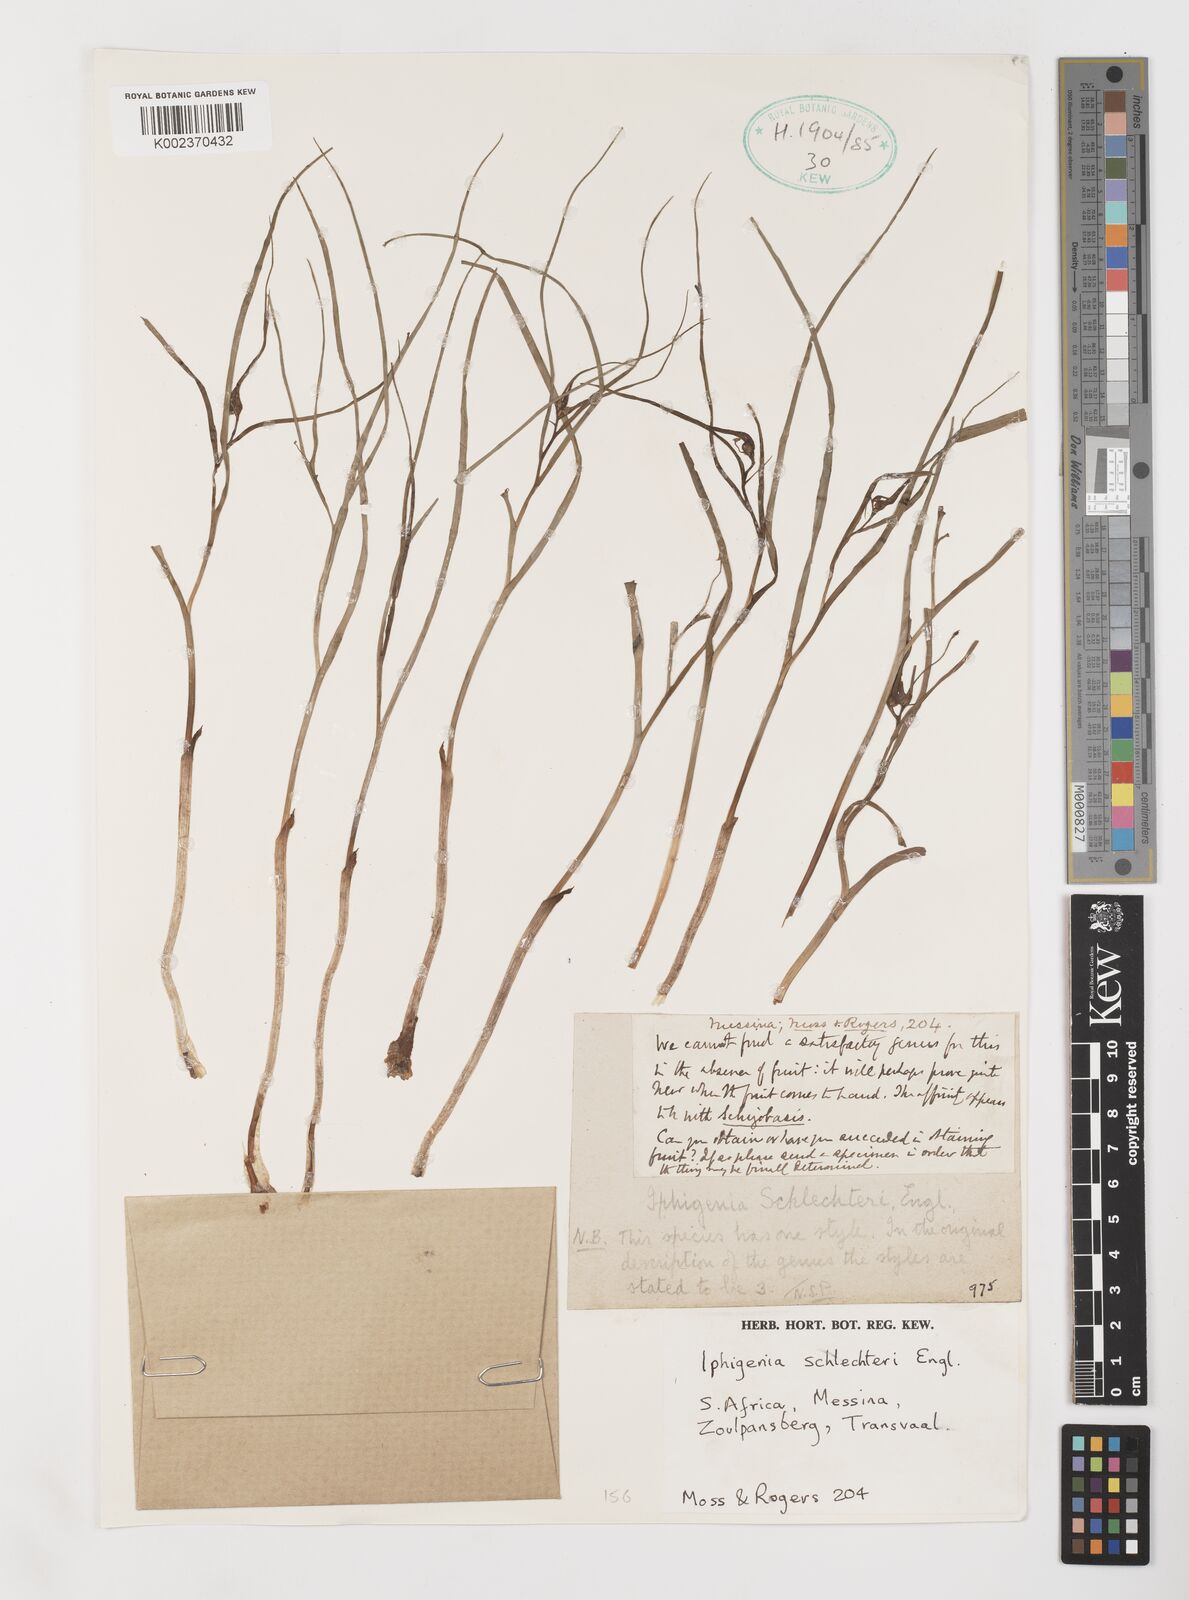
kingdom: Plantae
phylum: Tracheophyta
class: Liliopsida
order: Liliales
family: Colchicaceae
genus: Camptorrhiza
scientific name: Camptorrhiza strumosa
